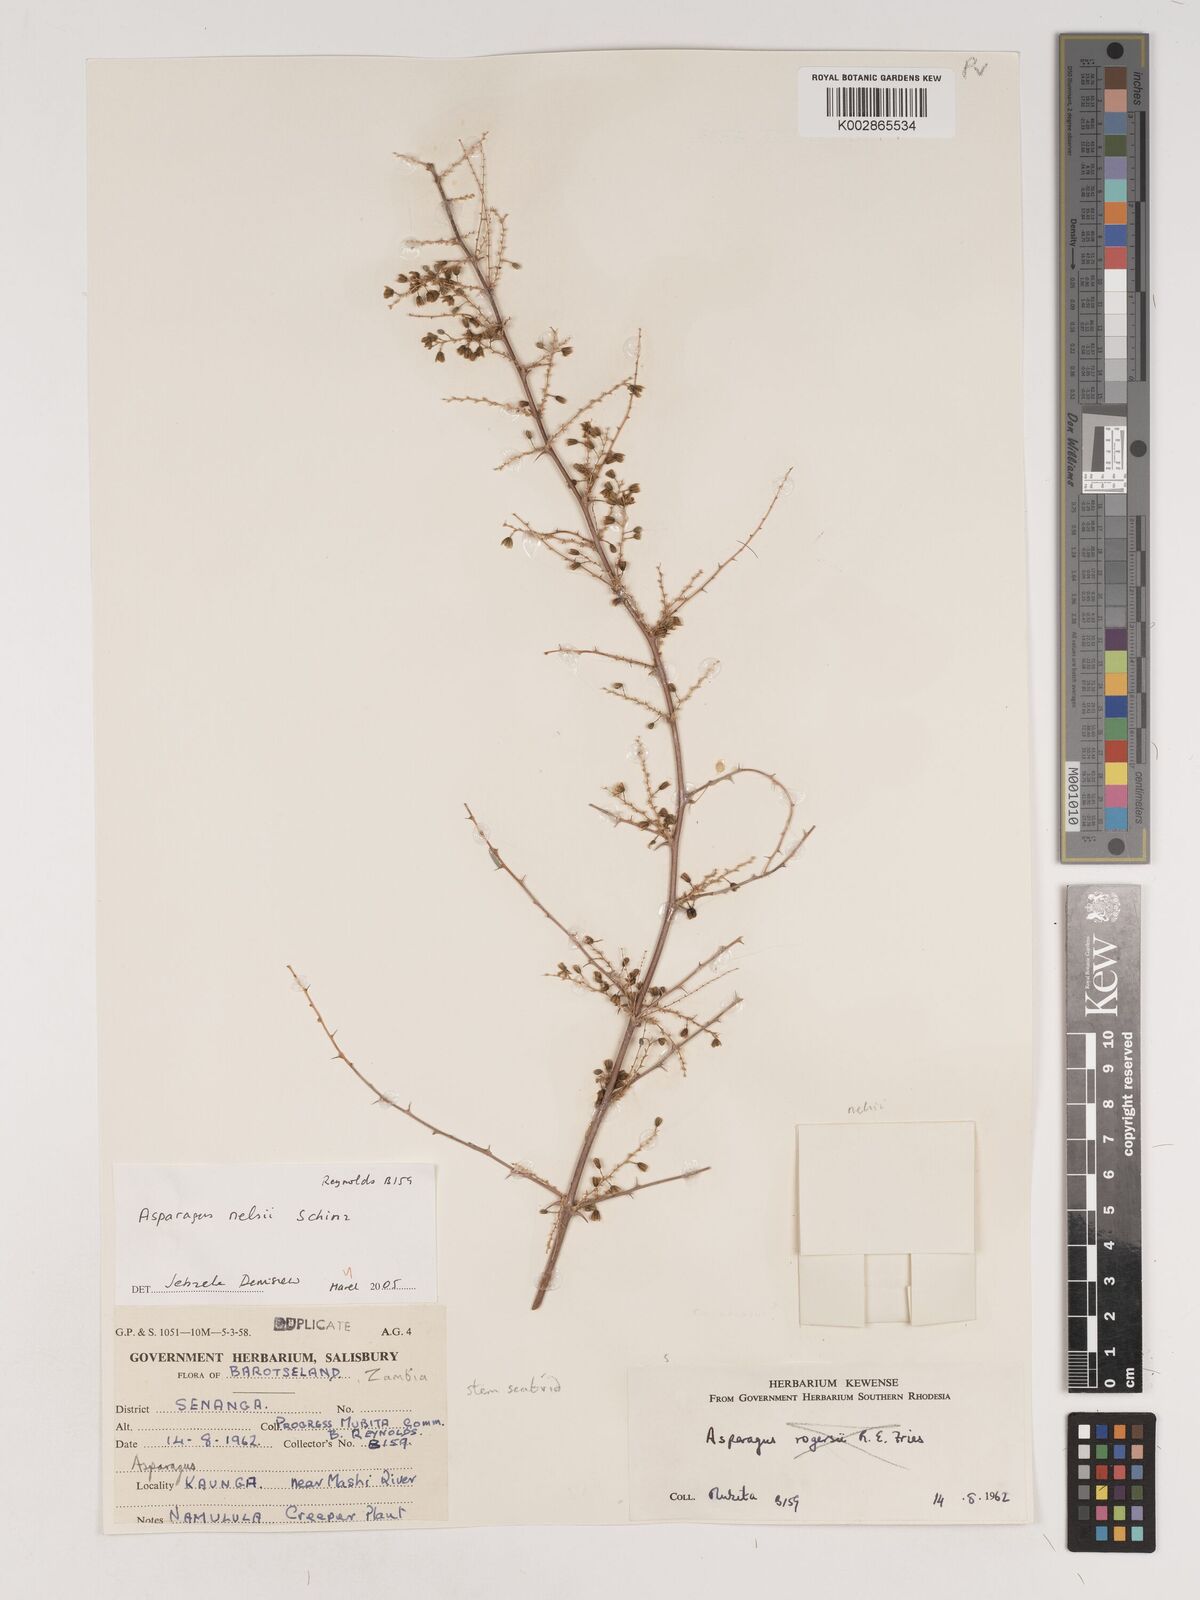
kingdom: Plantae
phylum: Tracheophyta
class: Liliopsida
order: Asparagales
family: Asparagaceae
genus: Asparagus
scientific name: Asparagus nelsii
